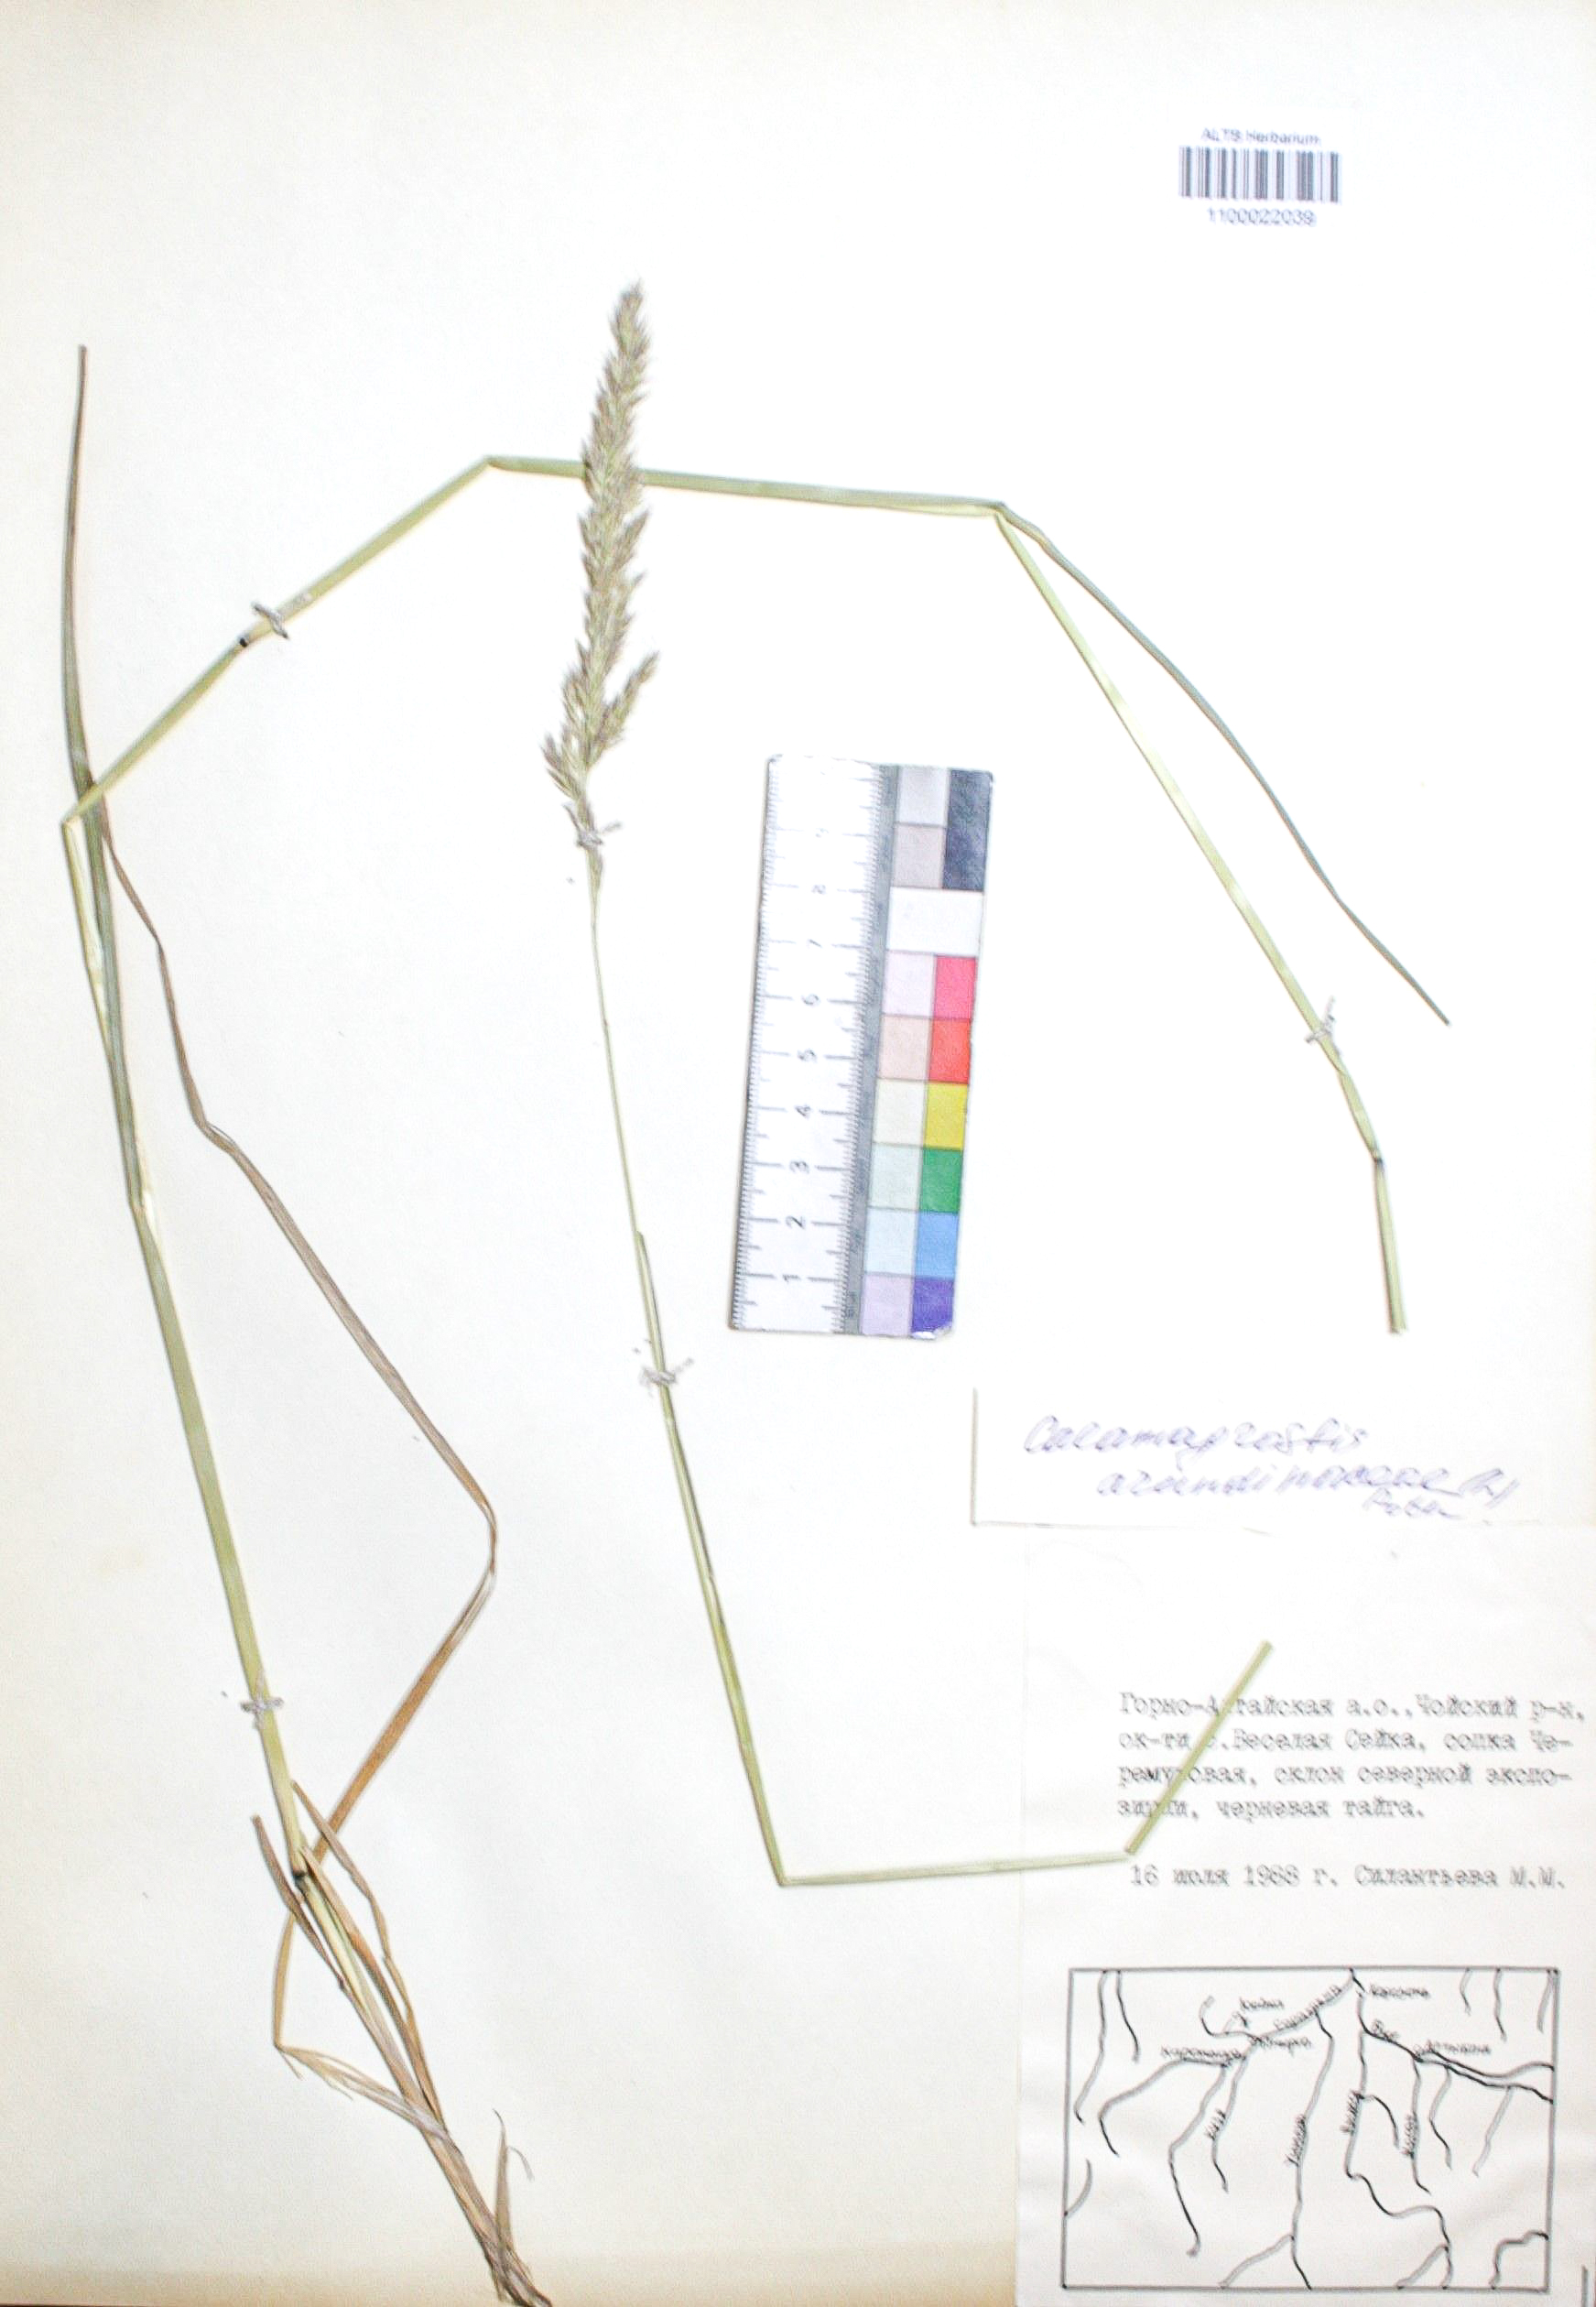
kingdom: Plantae
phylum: Tracheophyta
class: Liliopsida
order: Poales
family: Poaceae
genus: Calamagrostis
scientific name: Calamagrostis arundinacea
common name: Metskastik
